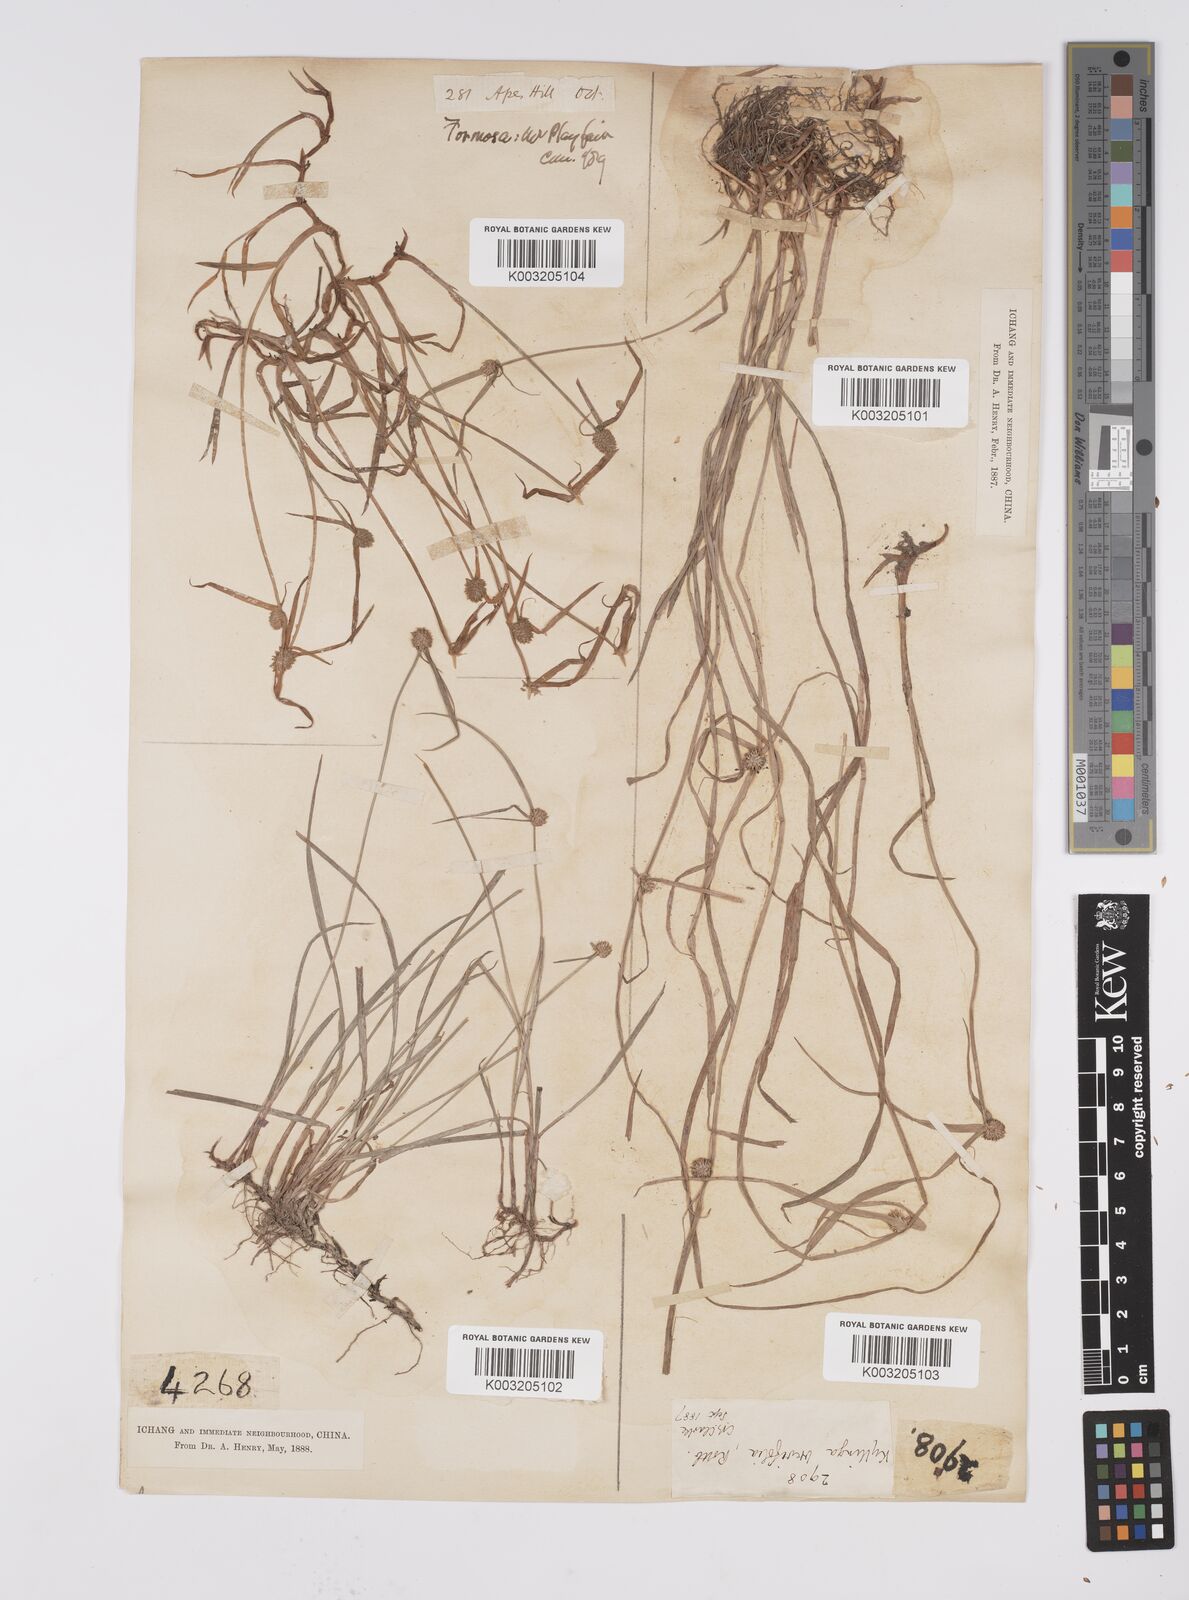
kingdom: Plantae
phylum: Tracheophyta
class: Liliopsida
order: Poales
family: Cyperaceae
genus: Cyperus
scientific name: Cyperus brevifolius
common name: Globe kyllinga
